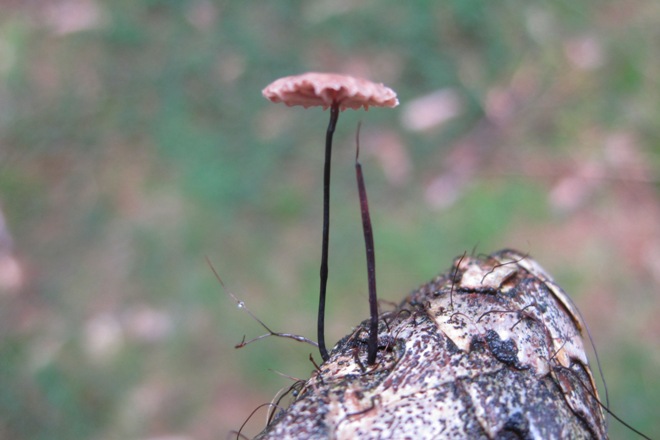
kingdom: Fungi
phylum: Basidiomycota
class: Agaricomycetes
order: Agaricales
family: Omphalotaceae
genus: Gymnopus
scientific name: Gymnopus androsaceus
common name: trådstokket fladhat
